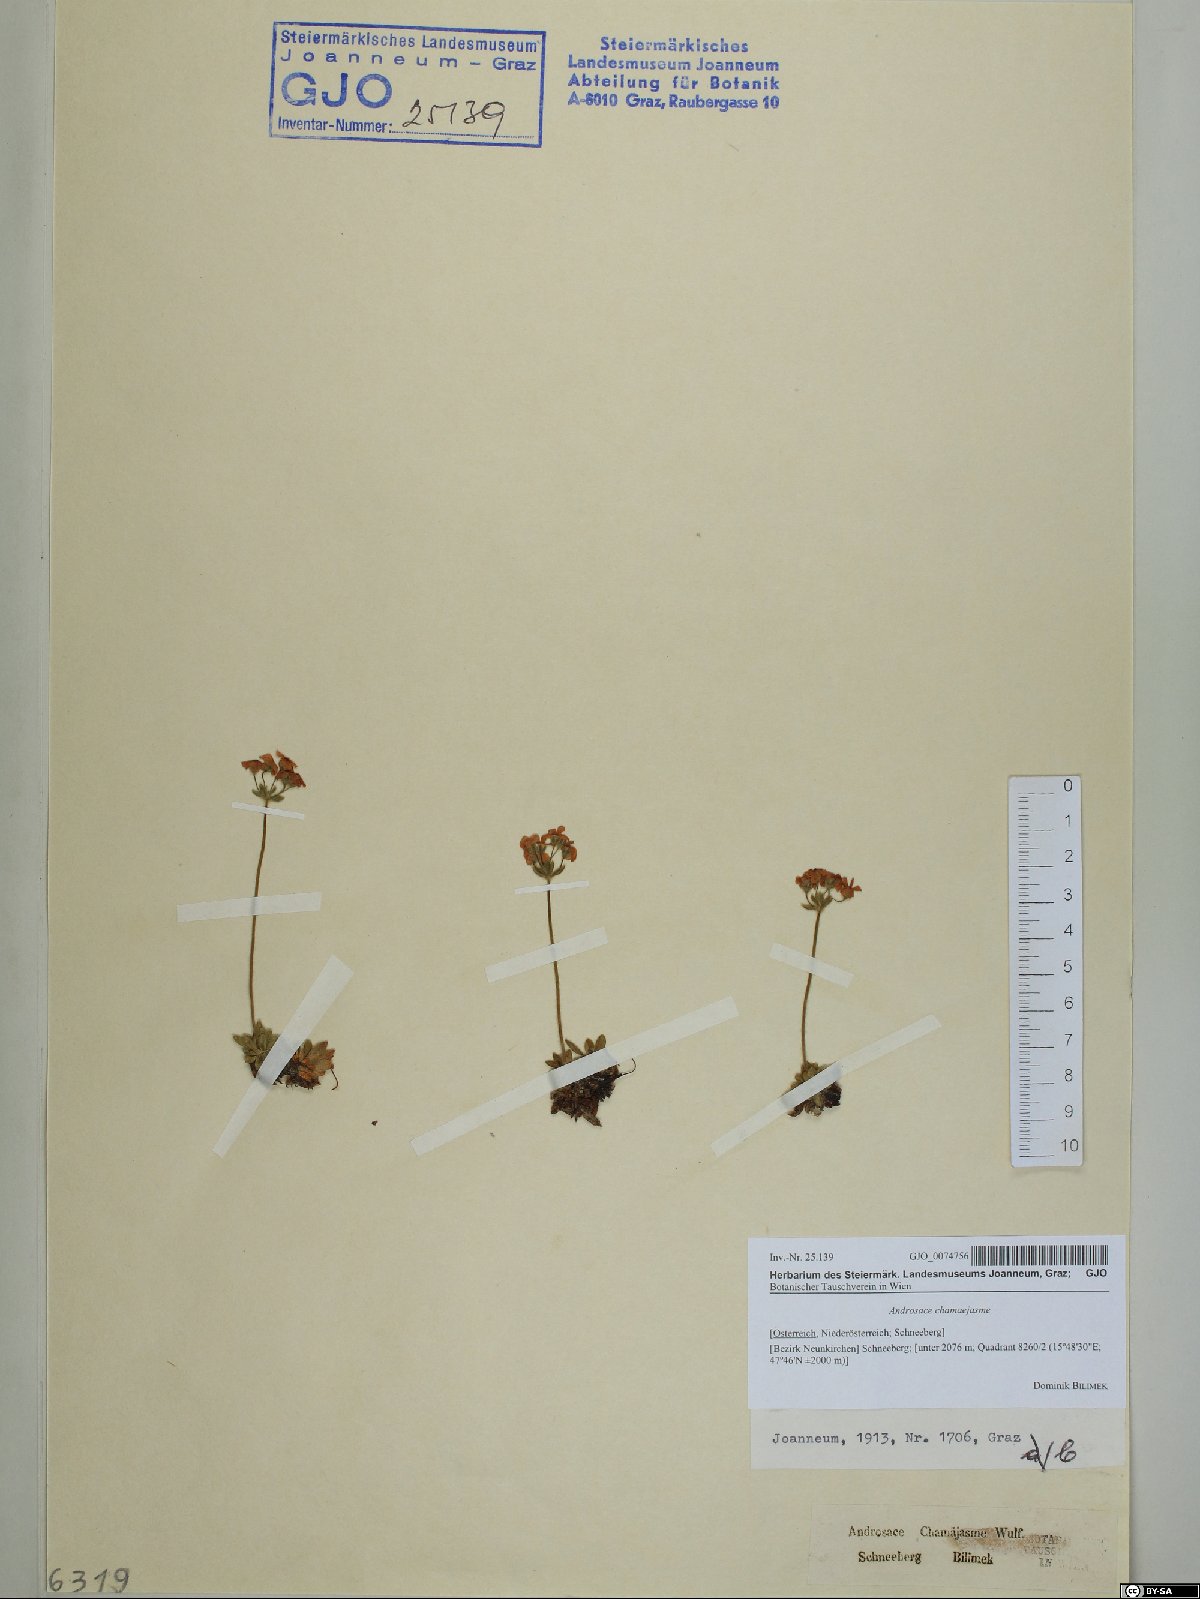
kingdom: Plantae
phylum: Tracheophyta
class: Magnoliopsida
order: Ericales
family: Primulaceae
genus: Androsace
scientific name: Androsace chamaejasme
